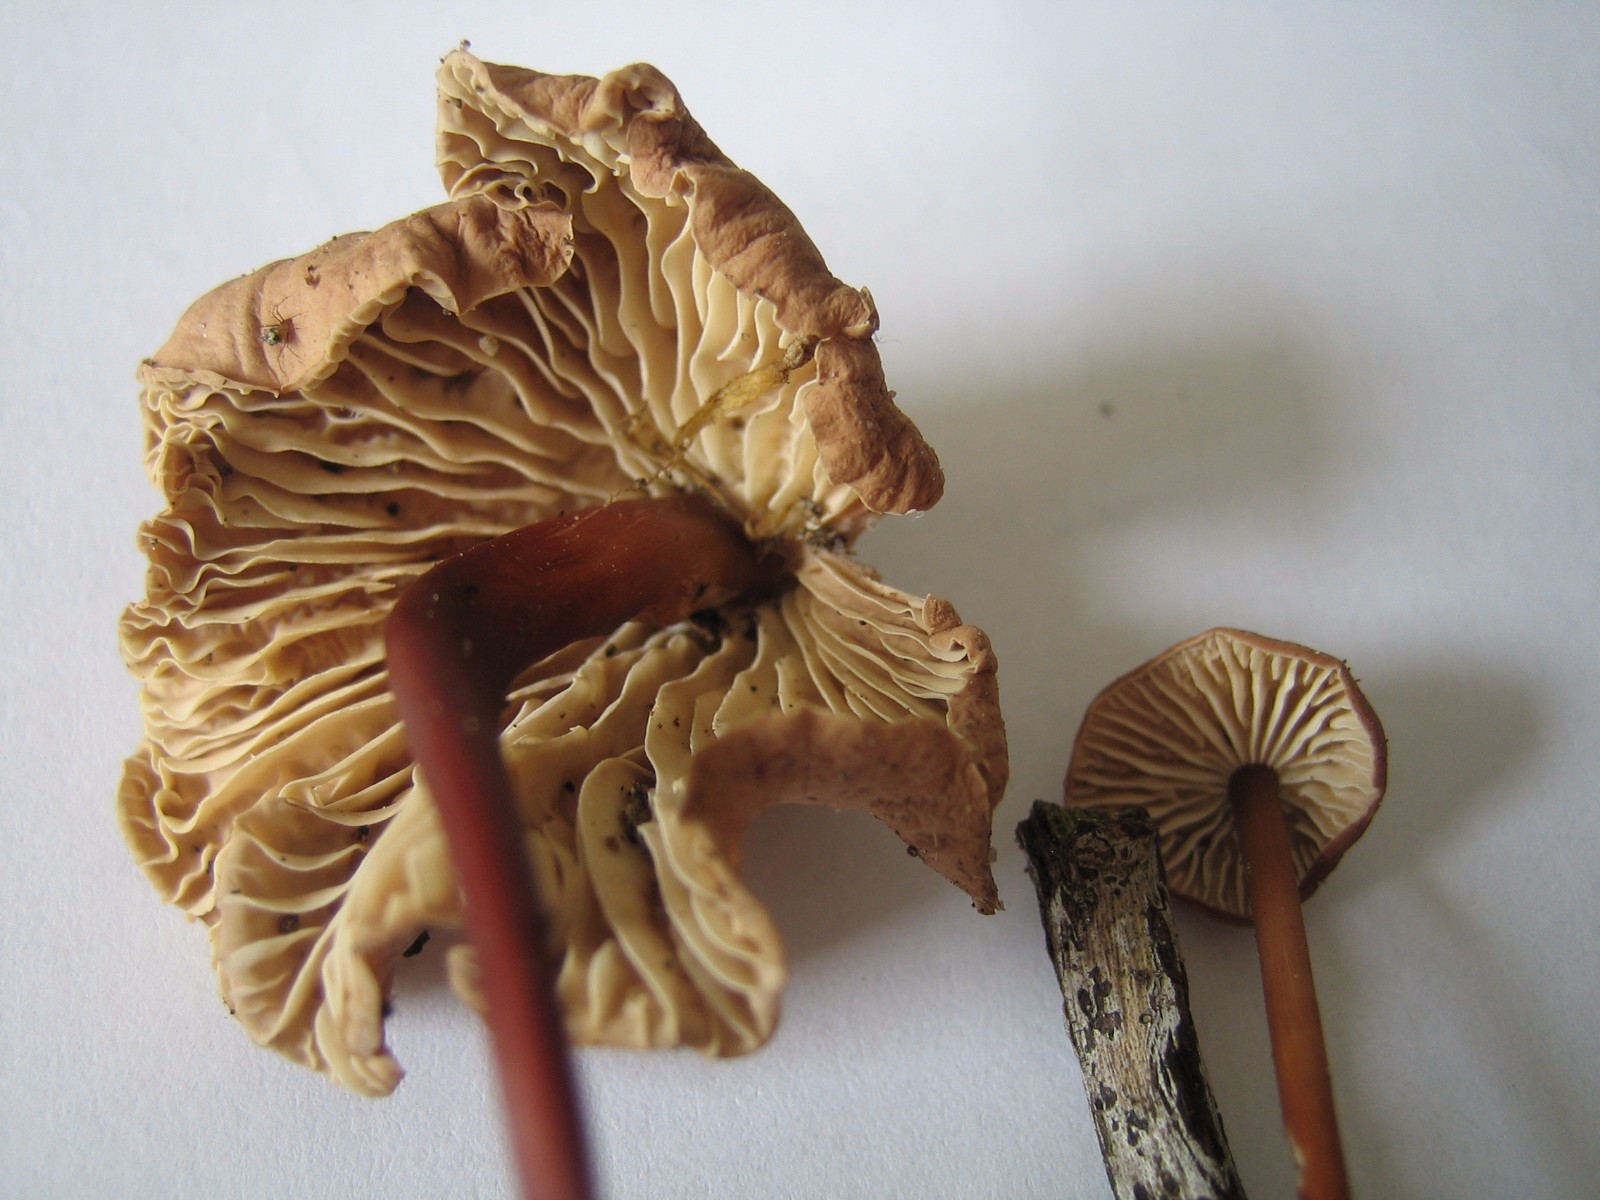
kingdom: Fungi
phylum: Basidiomycota
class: Agaricomycetes
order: Agaricales
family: Omphalotaceae
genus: Mycetinis
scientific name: Mycetinis scorodonius
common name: lille løghat
